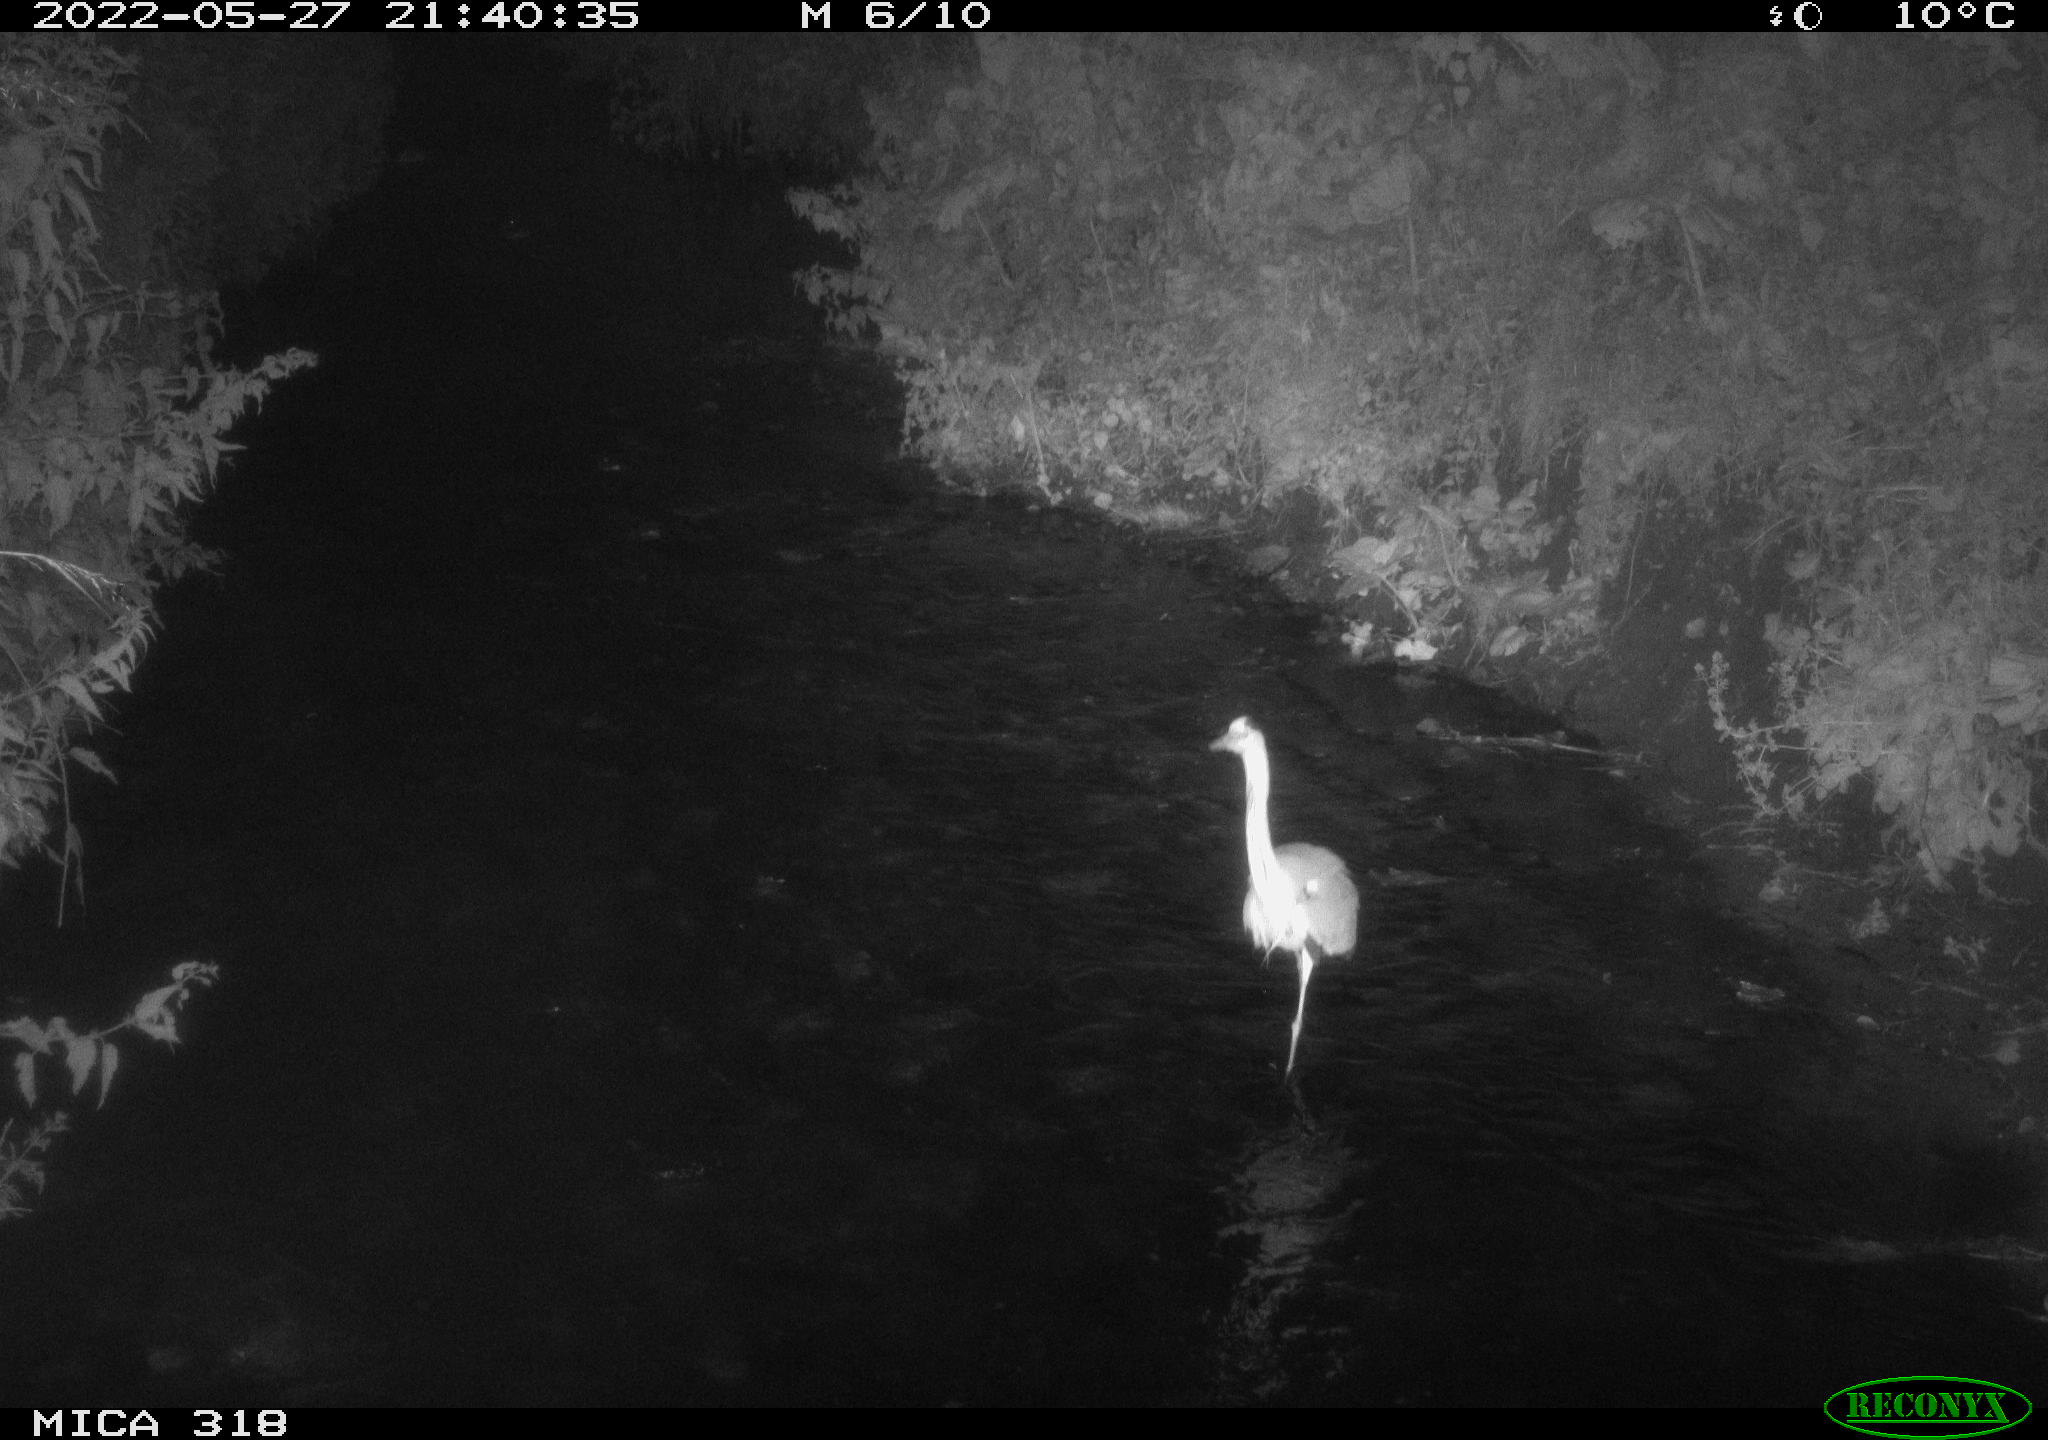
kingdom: Animalia
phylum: Chordata
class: Aves
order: Pelecaniformes
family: Ardeidae
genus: Ardea
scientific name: Ardea cinerea
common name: Grey heron
